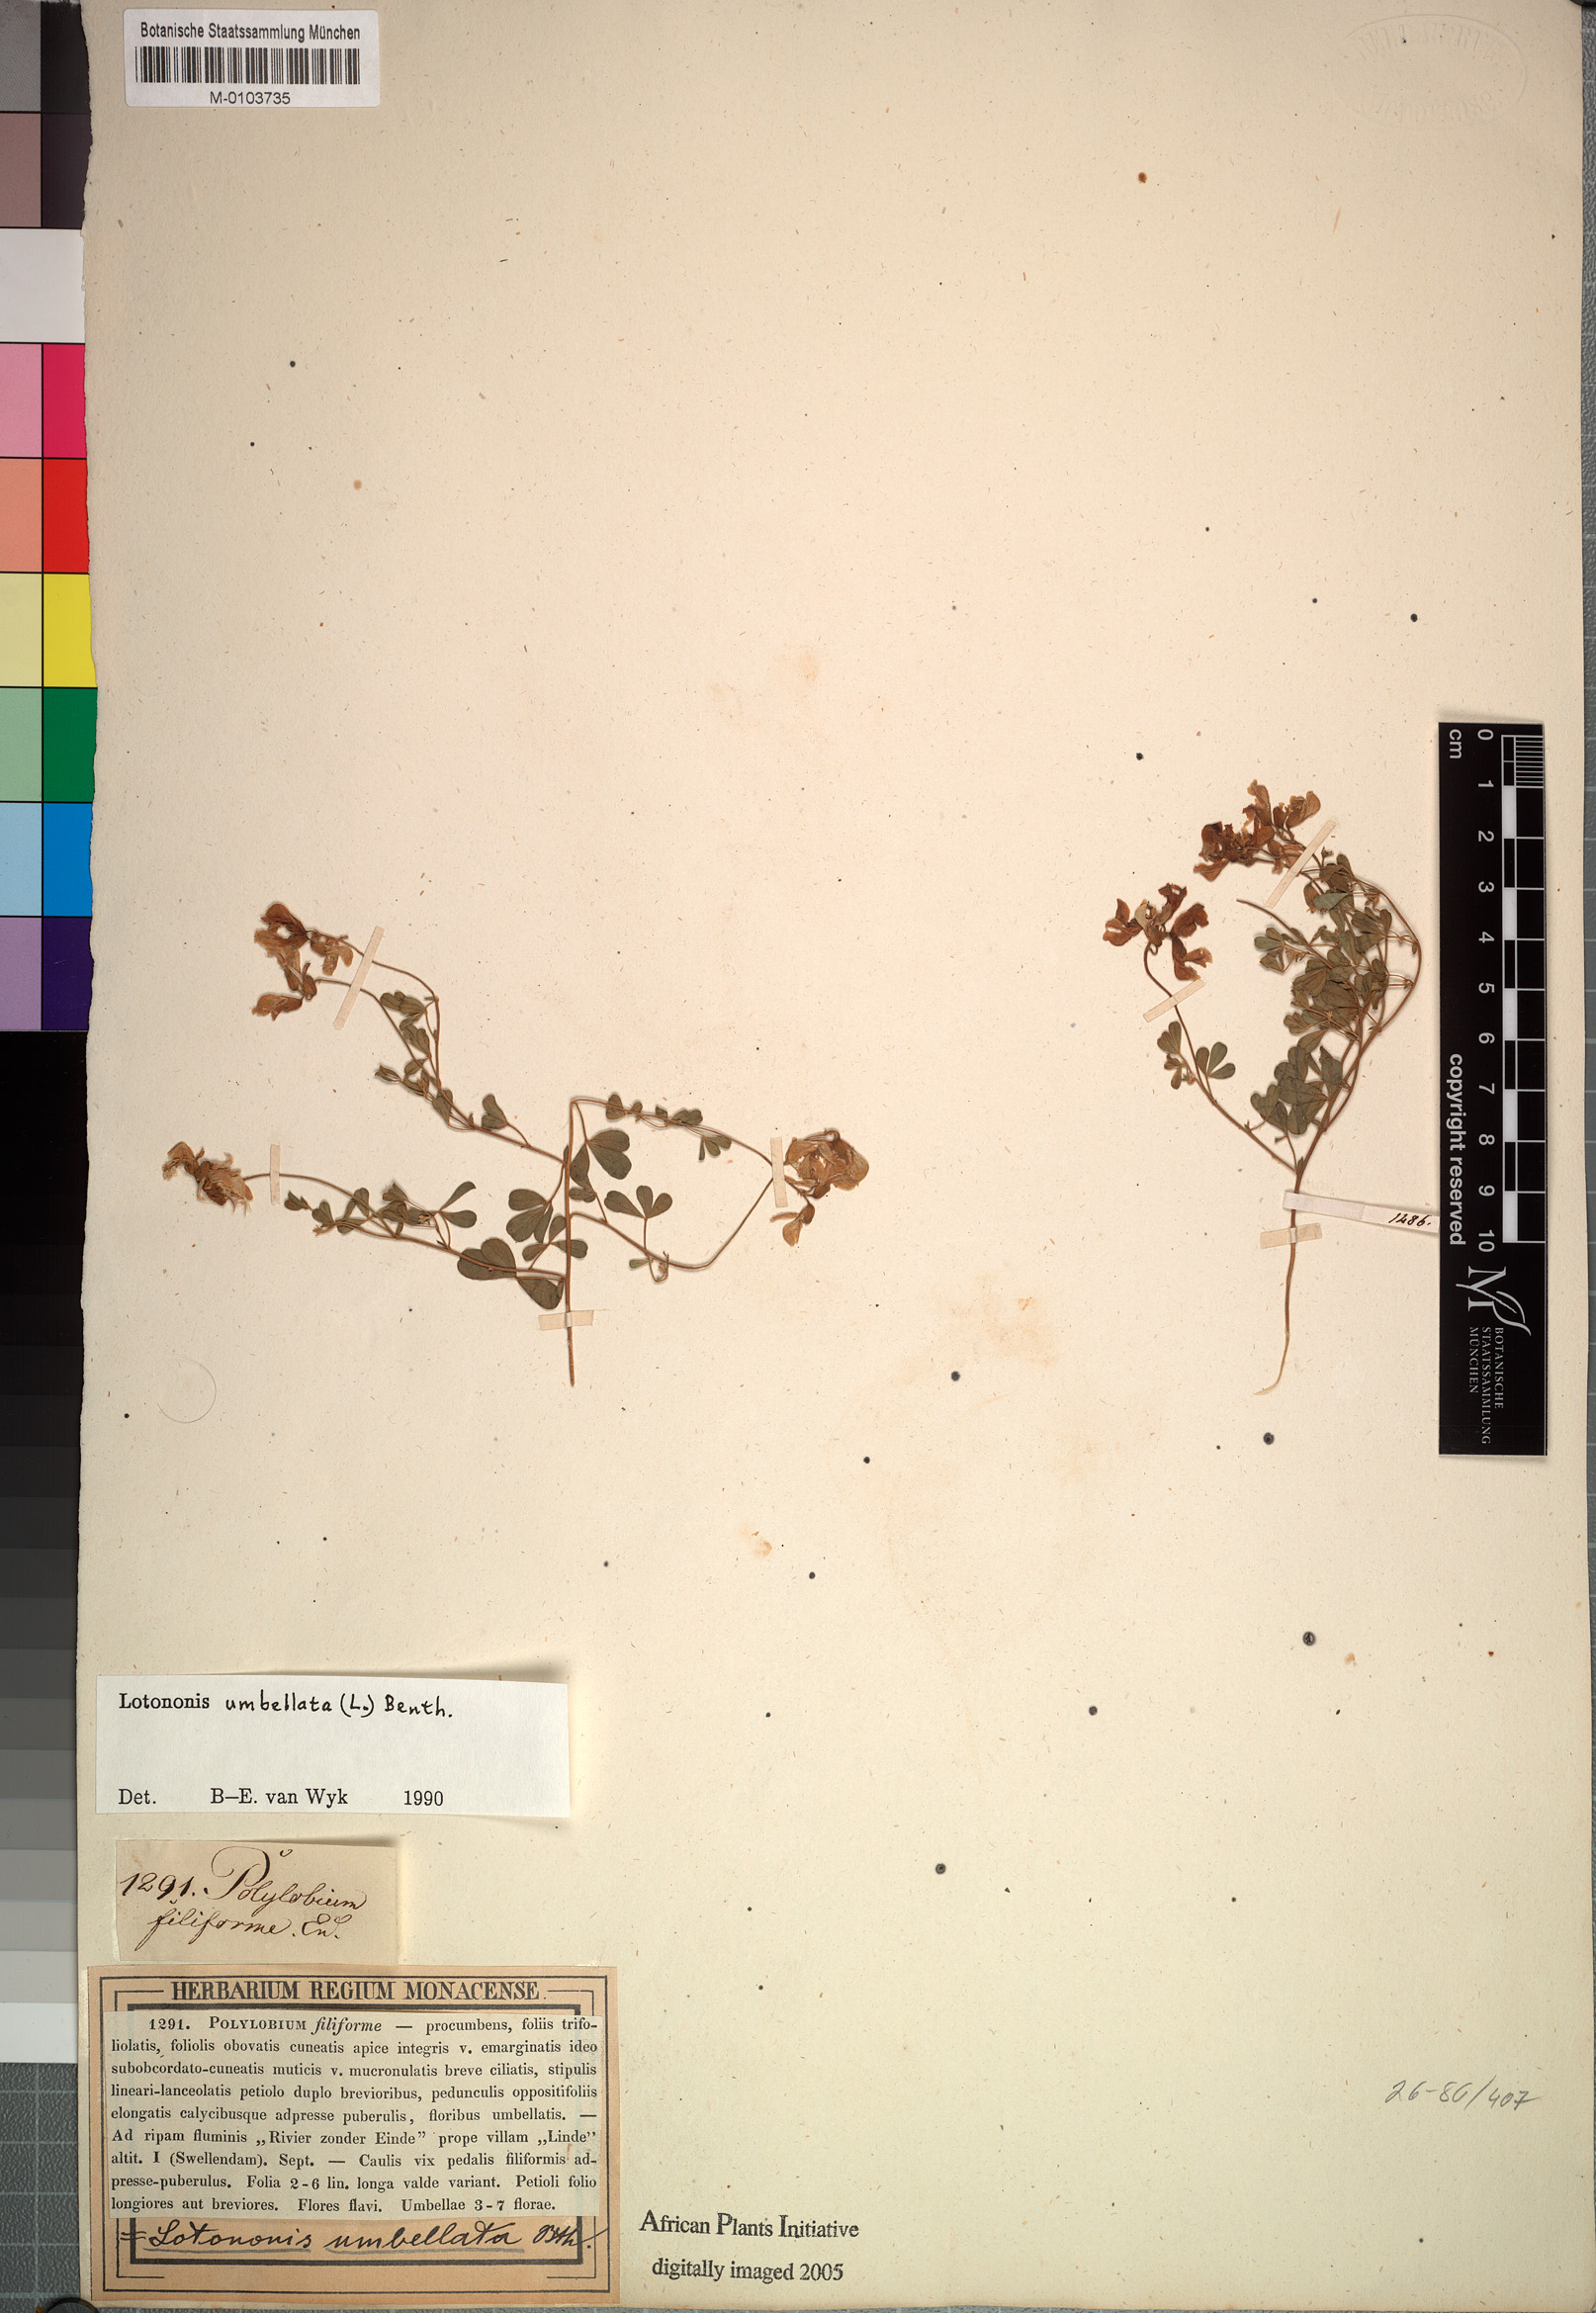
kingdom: Plantae
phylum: Tracheophyta
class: Magnoliopsida
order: Fabales
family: Fabaceae
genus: Lotononis
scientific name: Lotononis umbellata
